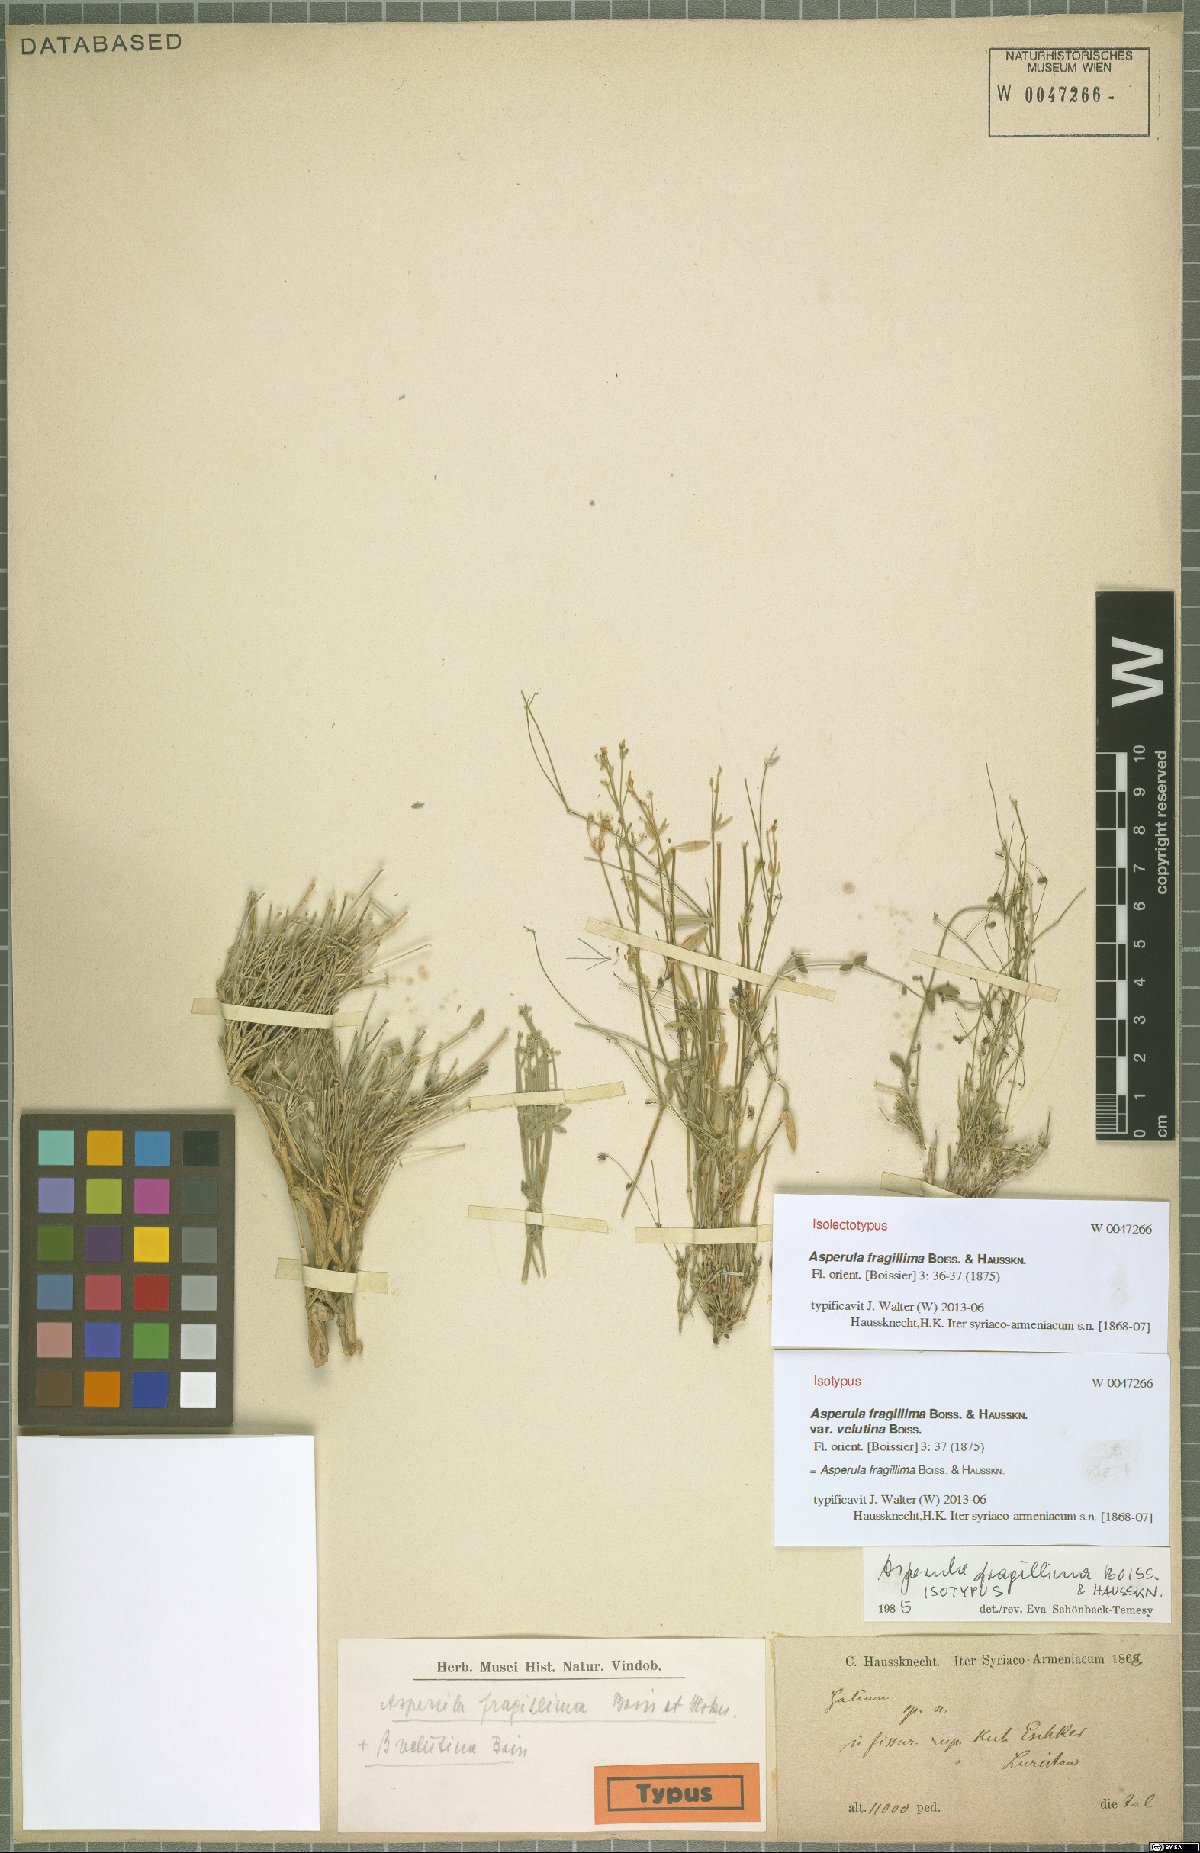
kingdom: Plantae
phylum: Tracheophyta
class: Magnoliopsida
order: Gentianales
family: Rubiaceae
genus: Asperula
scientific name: Asperula fragillima
